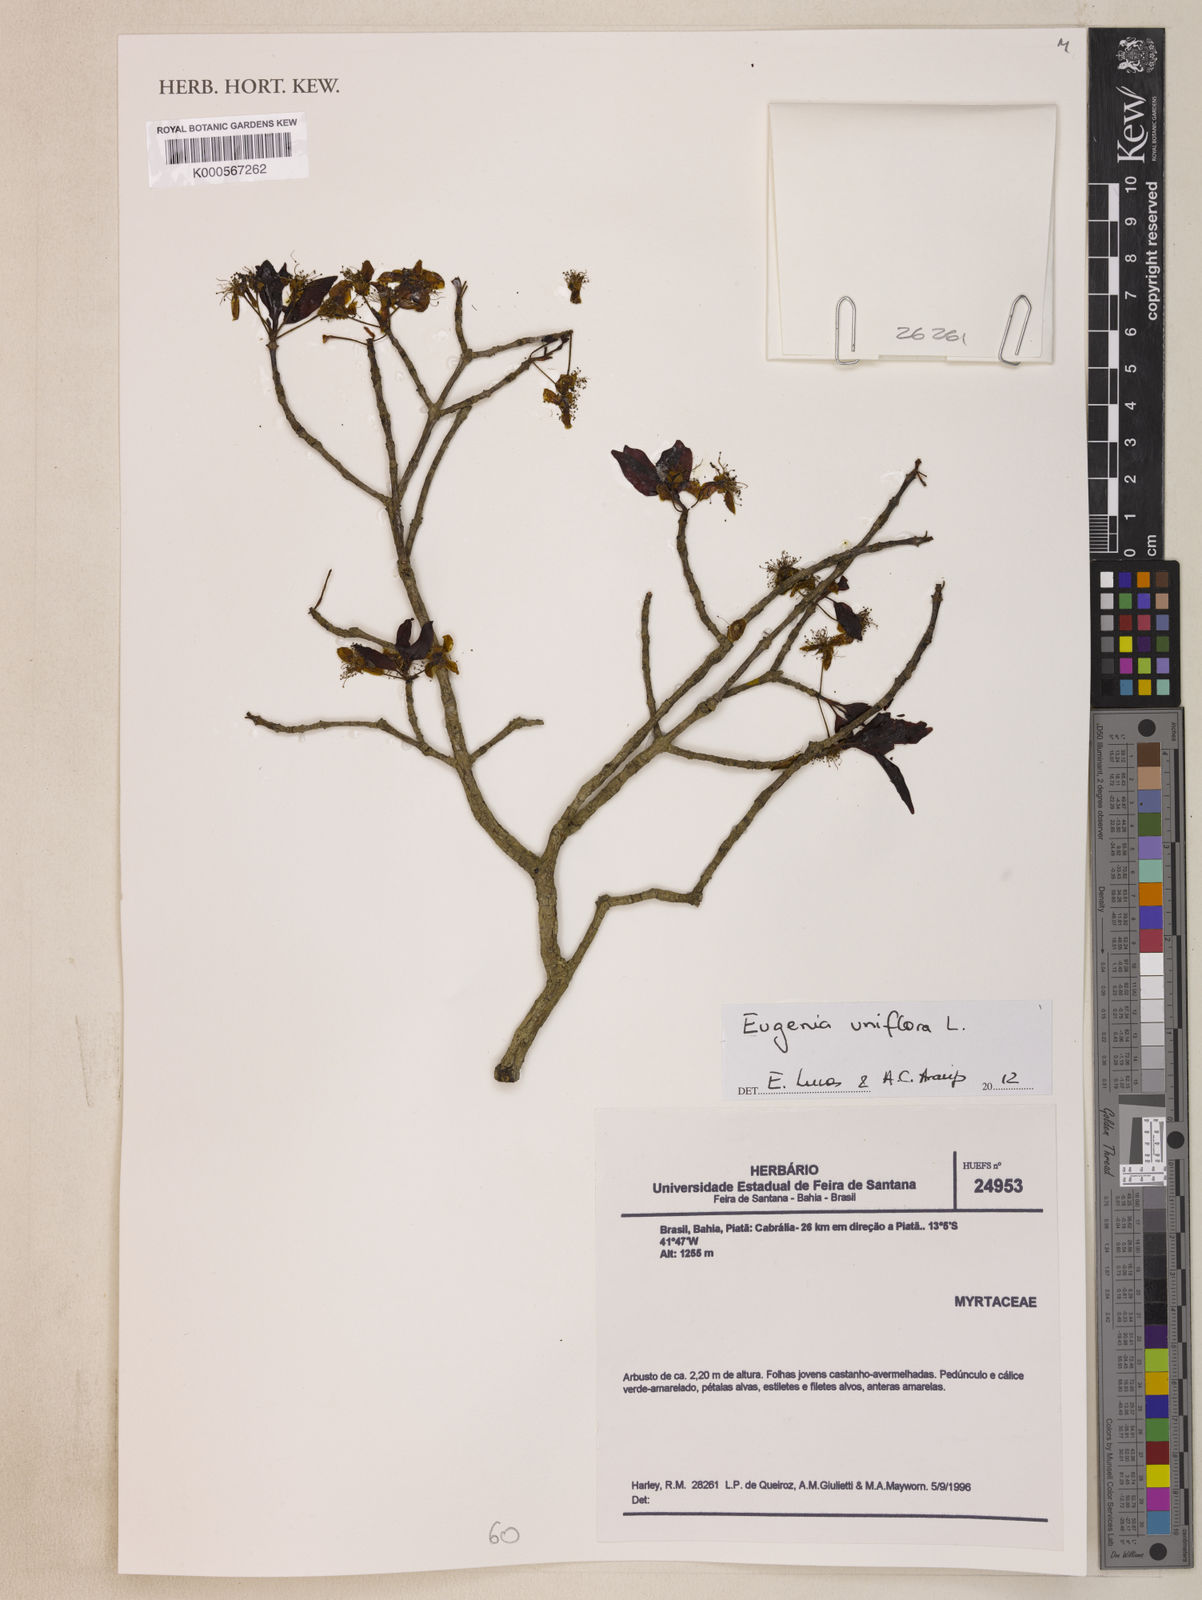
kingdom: Plantae
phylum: Tracheophyta
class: Magnoliopsida
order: Myrtales
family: Myrtaceae
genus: Eugenia
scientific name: Eugenia uniflora
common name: Surinam cherry
